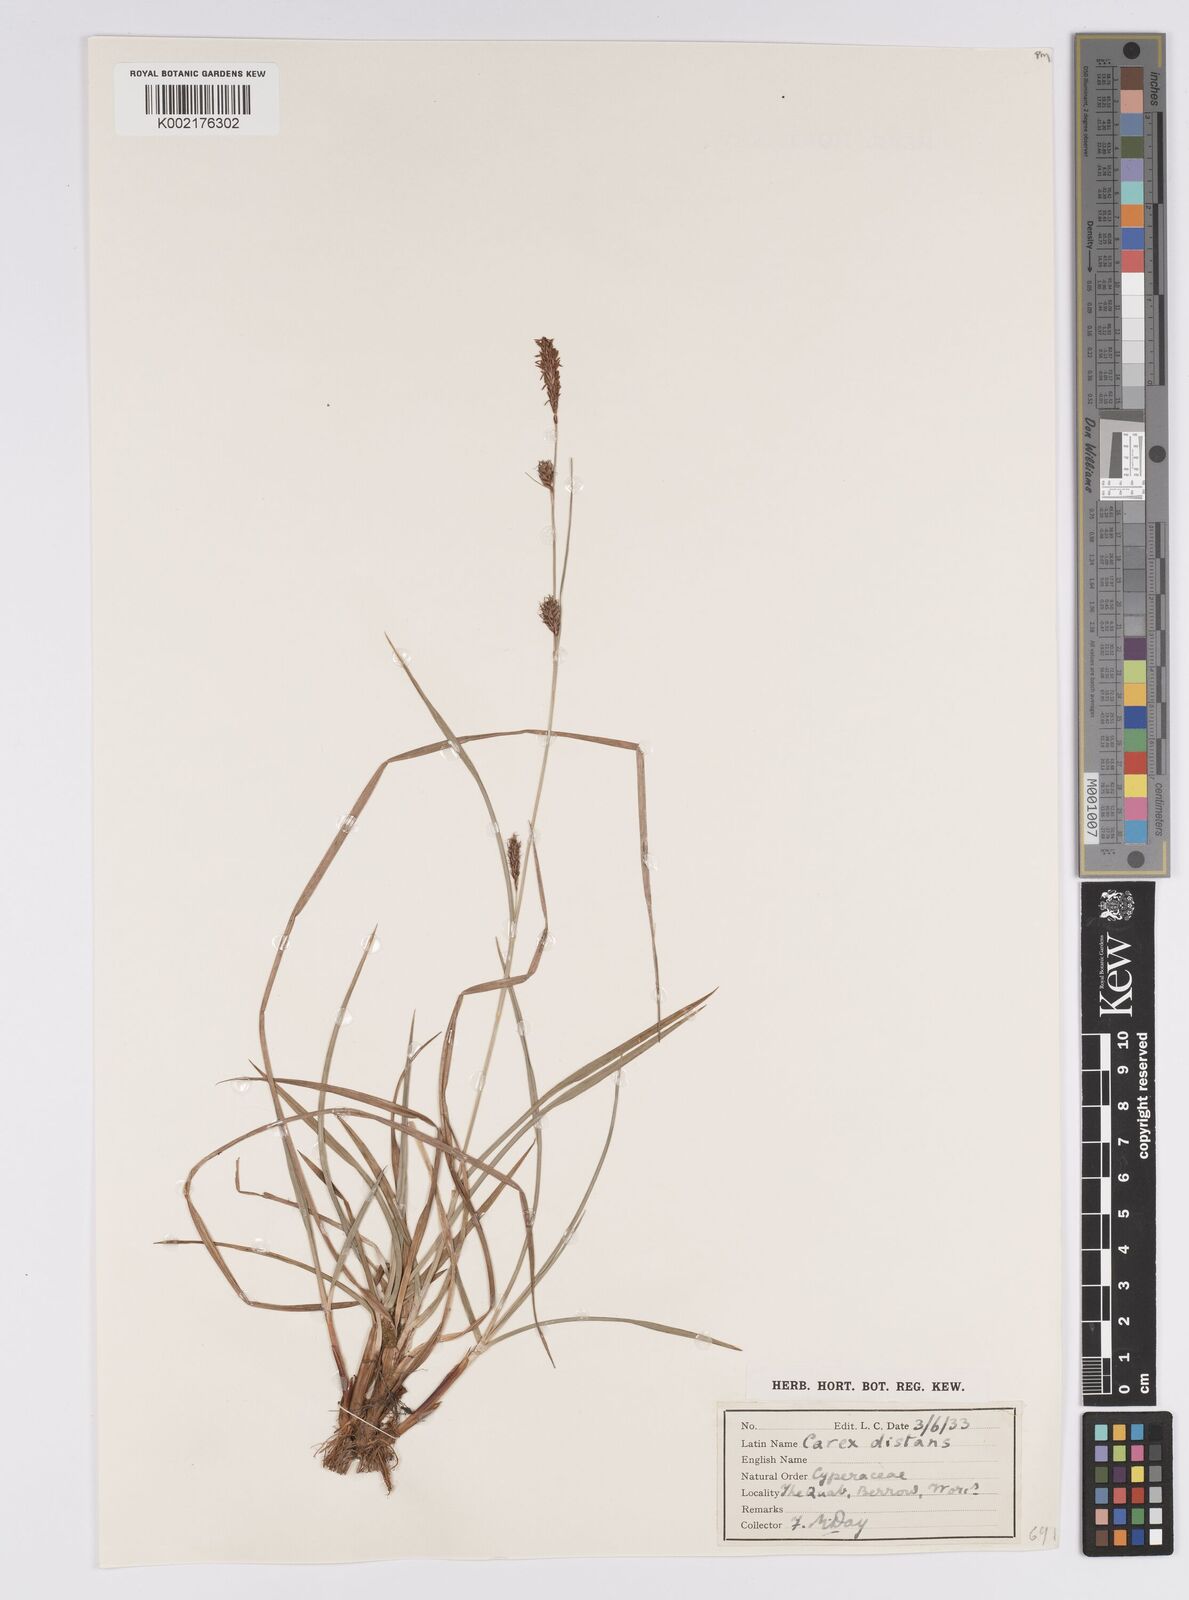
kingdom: Plantae
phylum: Tracheophyta
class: Liliopsida
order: Poales
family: Cyperaceae
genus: Carex
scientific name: Carex distans
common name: Distant sedge
